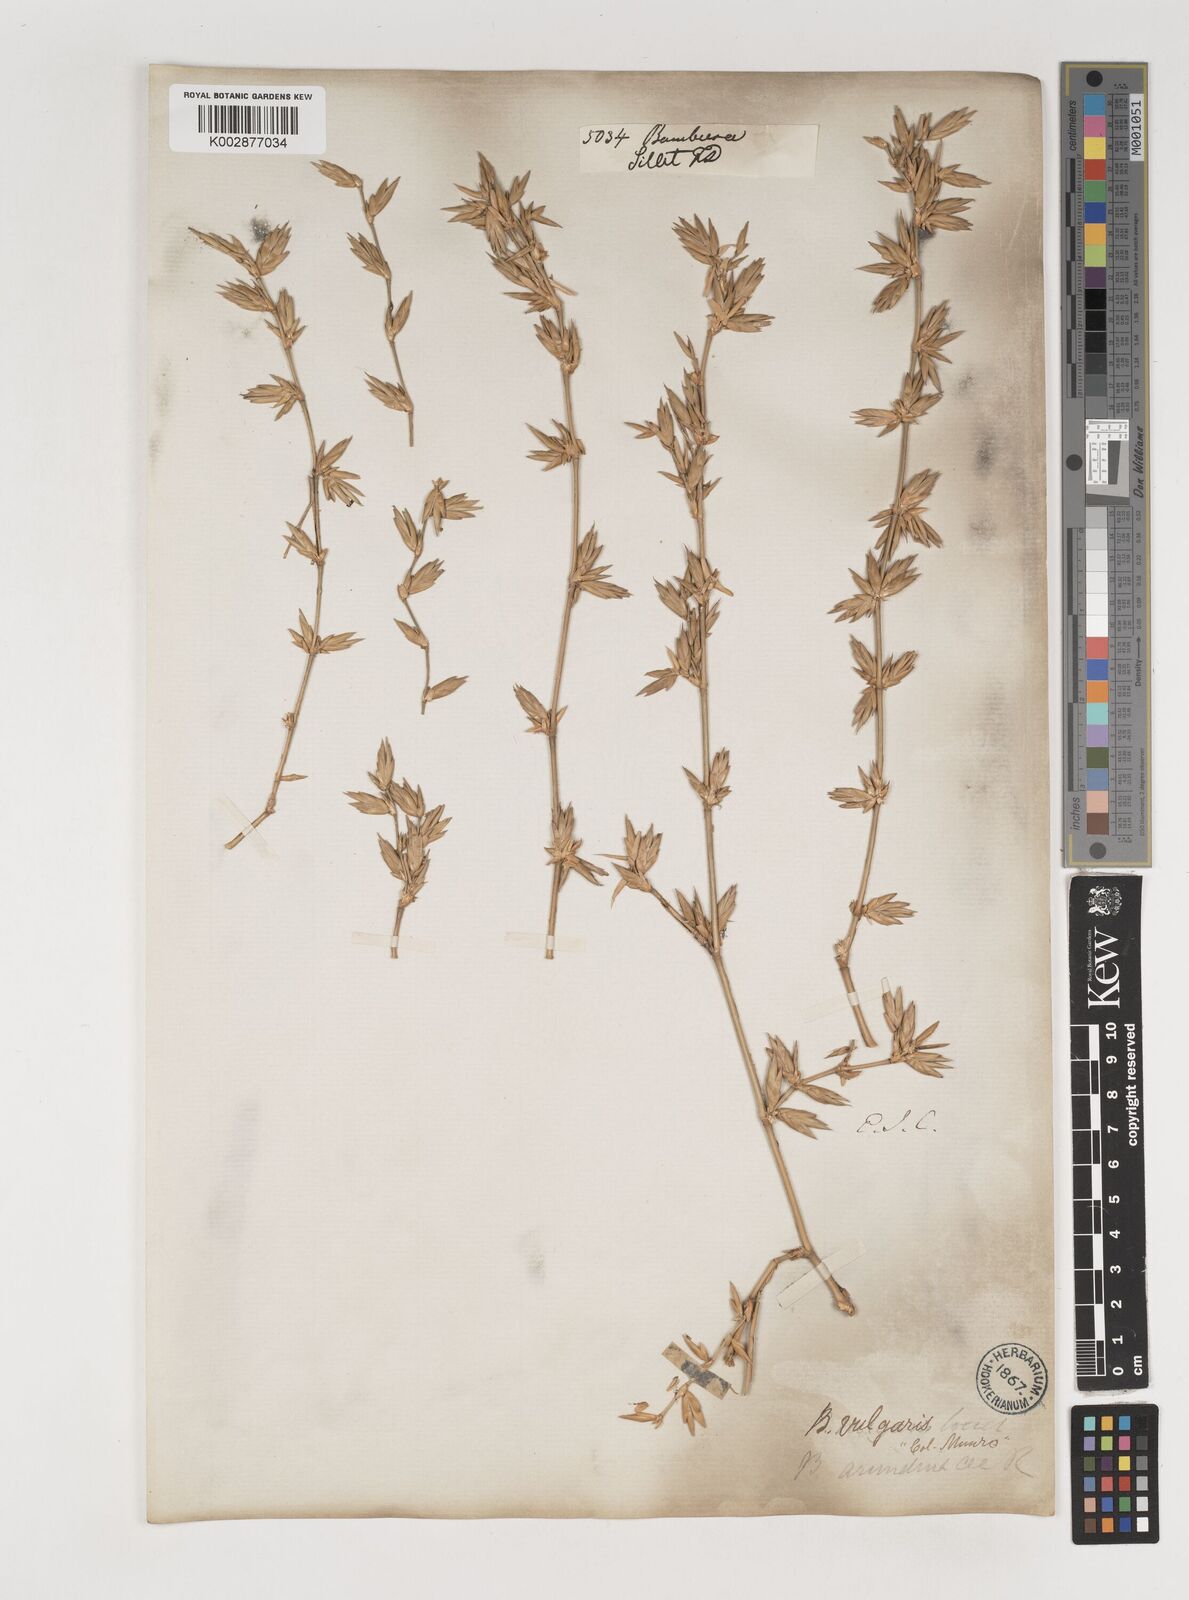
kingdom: Plantae
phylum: Tracheophyta
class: Liliopsida
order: Poales
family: Poaceae
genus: Bambusa
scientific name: Bambusa vulgaris
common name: Common bamboo
